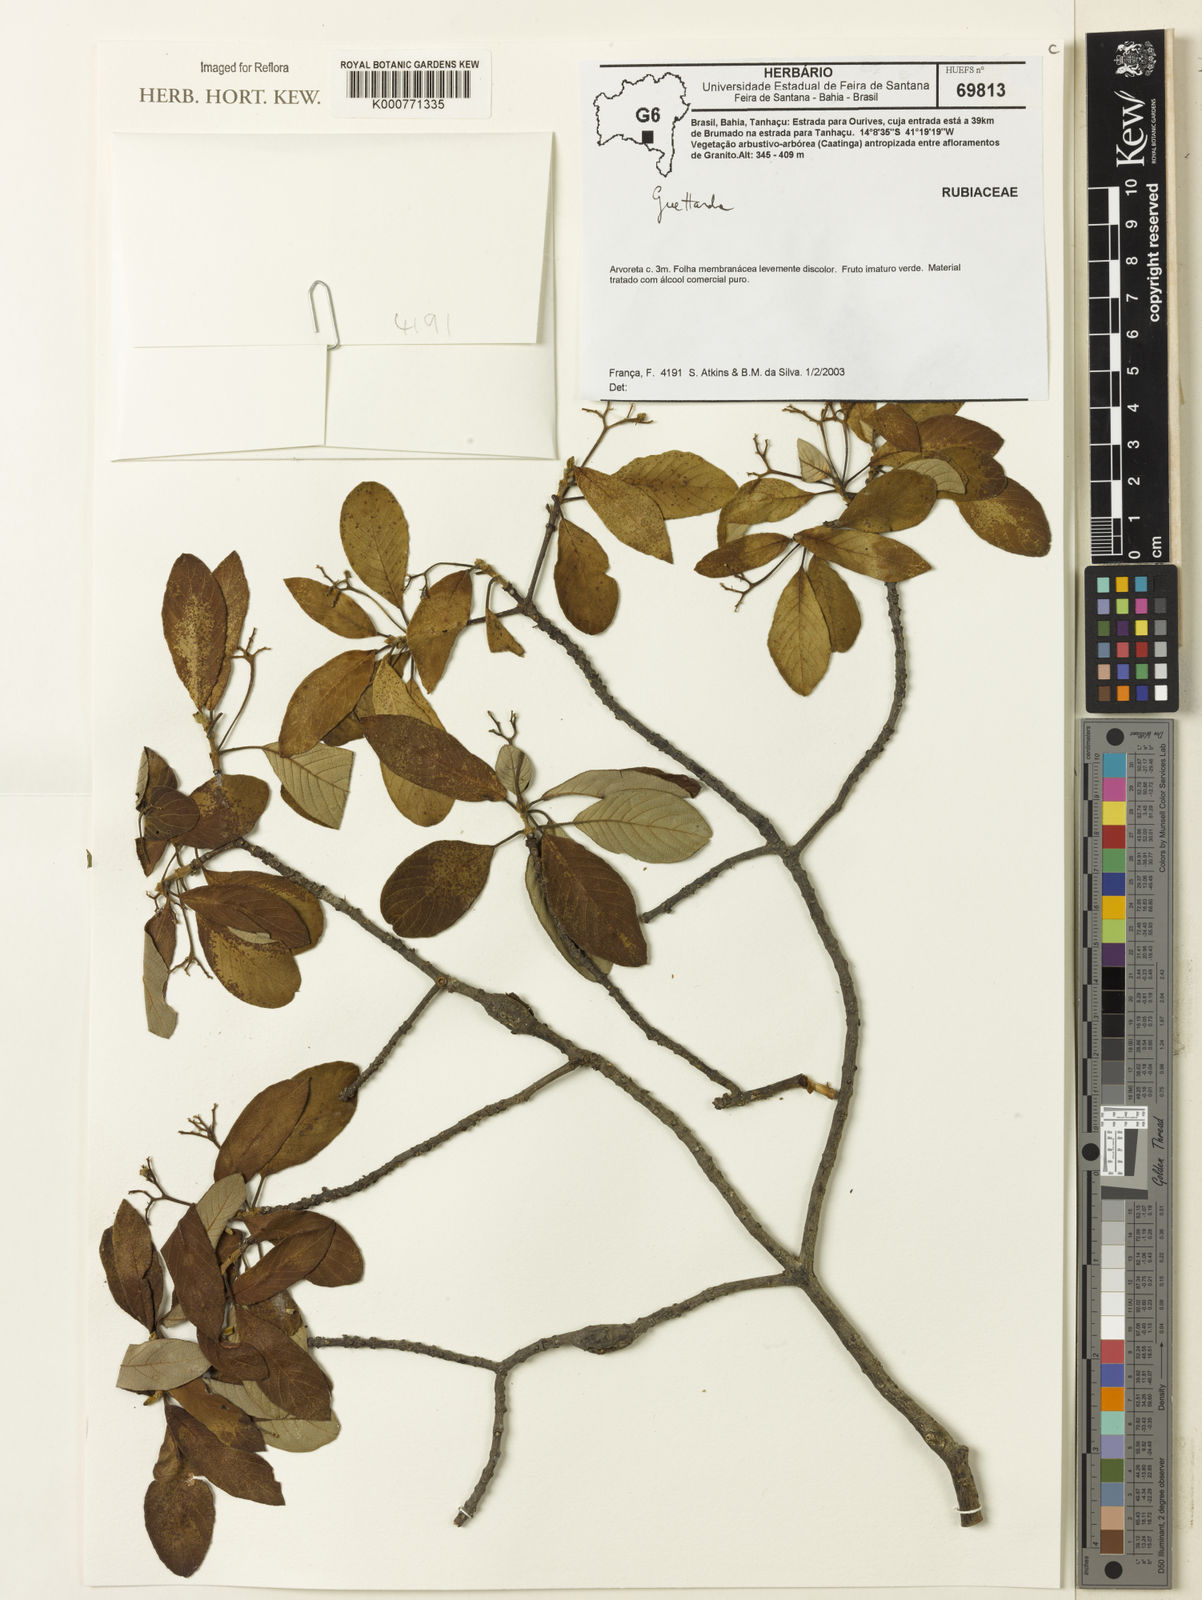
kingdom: Plantae
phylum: Tracheophyta
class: Magnoliopsida
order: Gentianales
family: Rubiaceae
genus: Guettarda
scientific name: Guettarda
